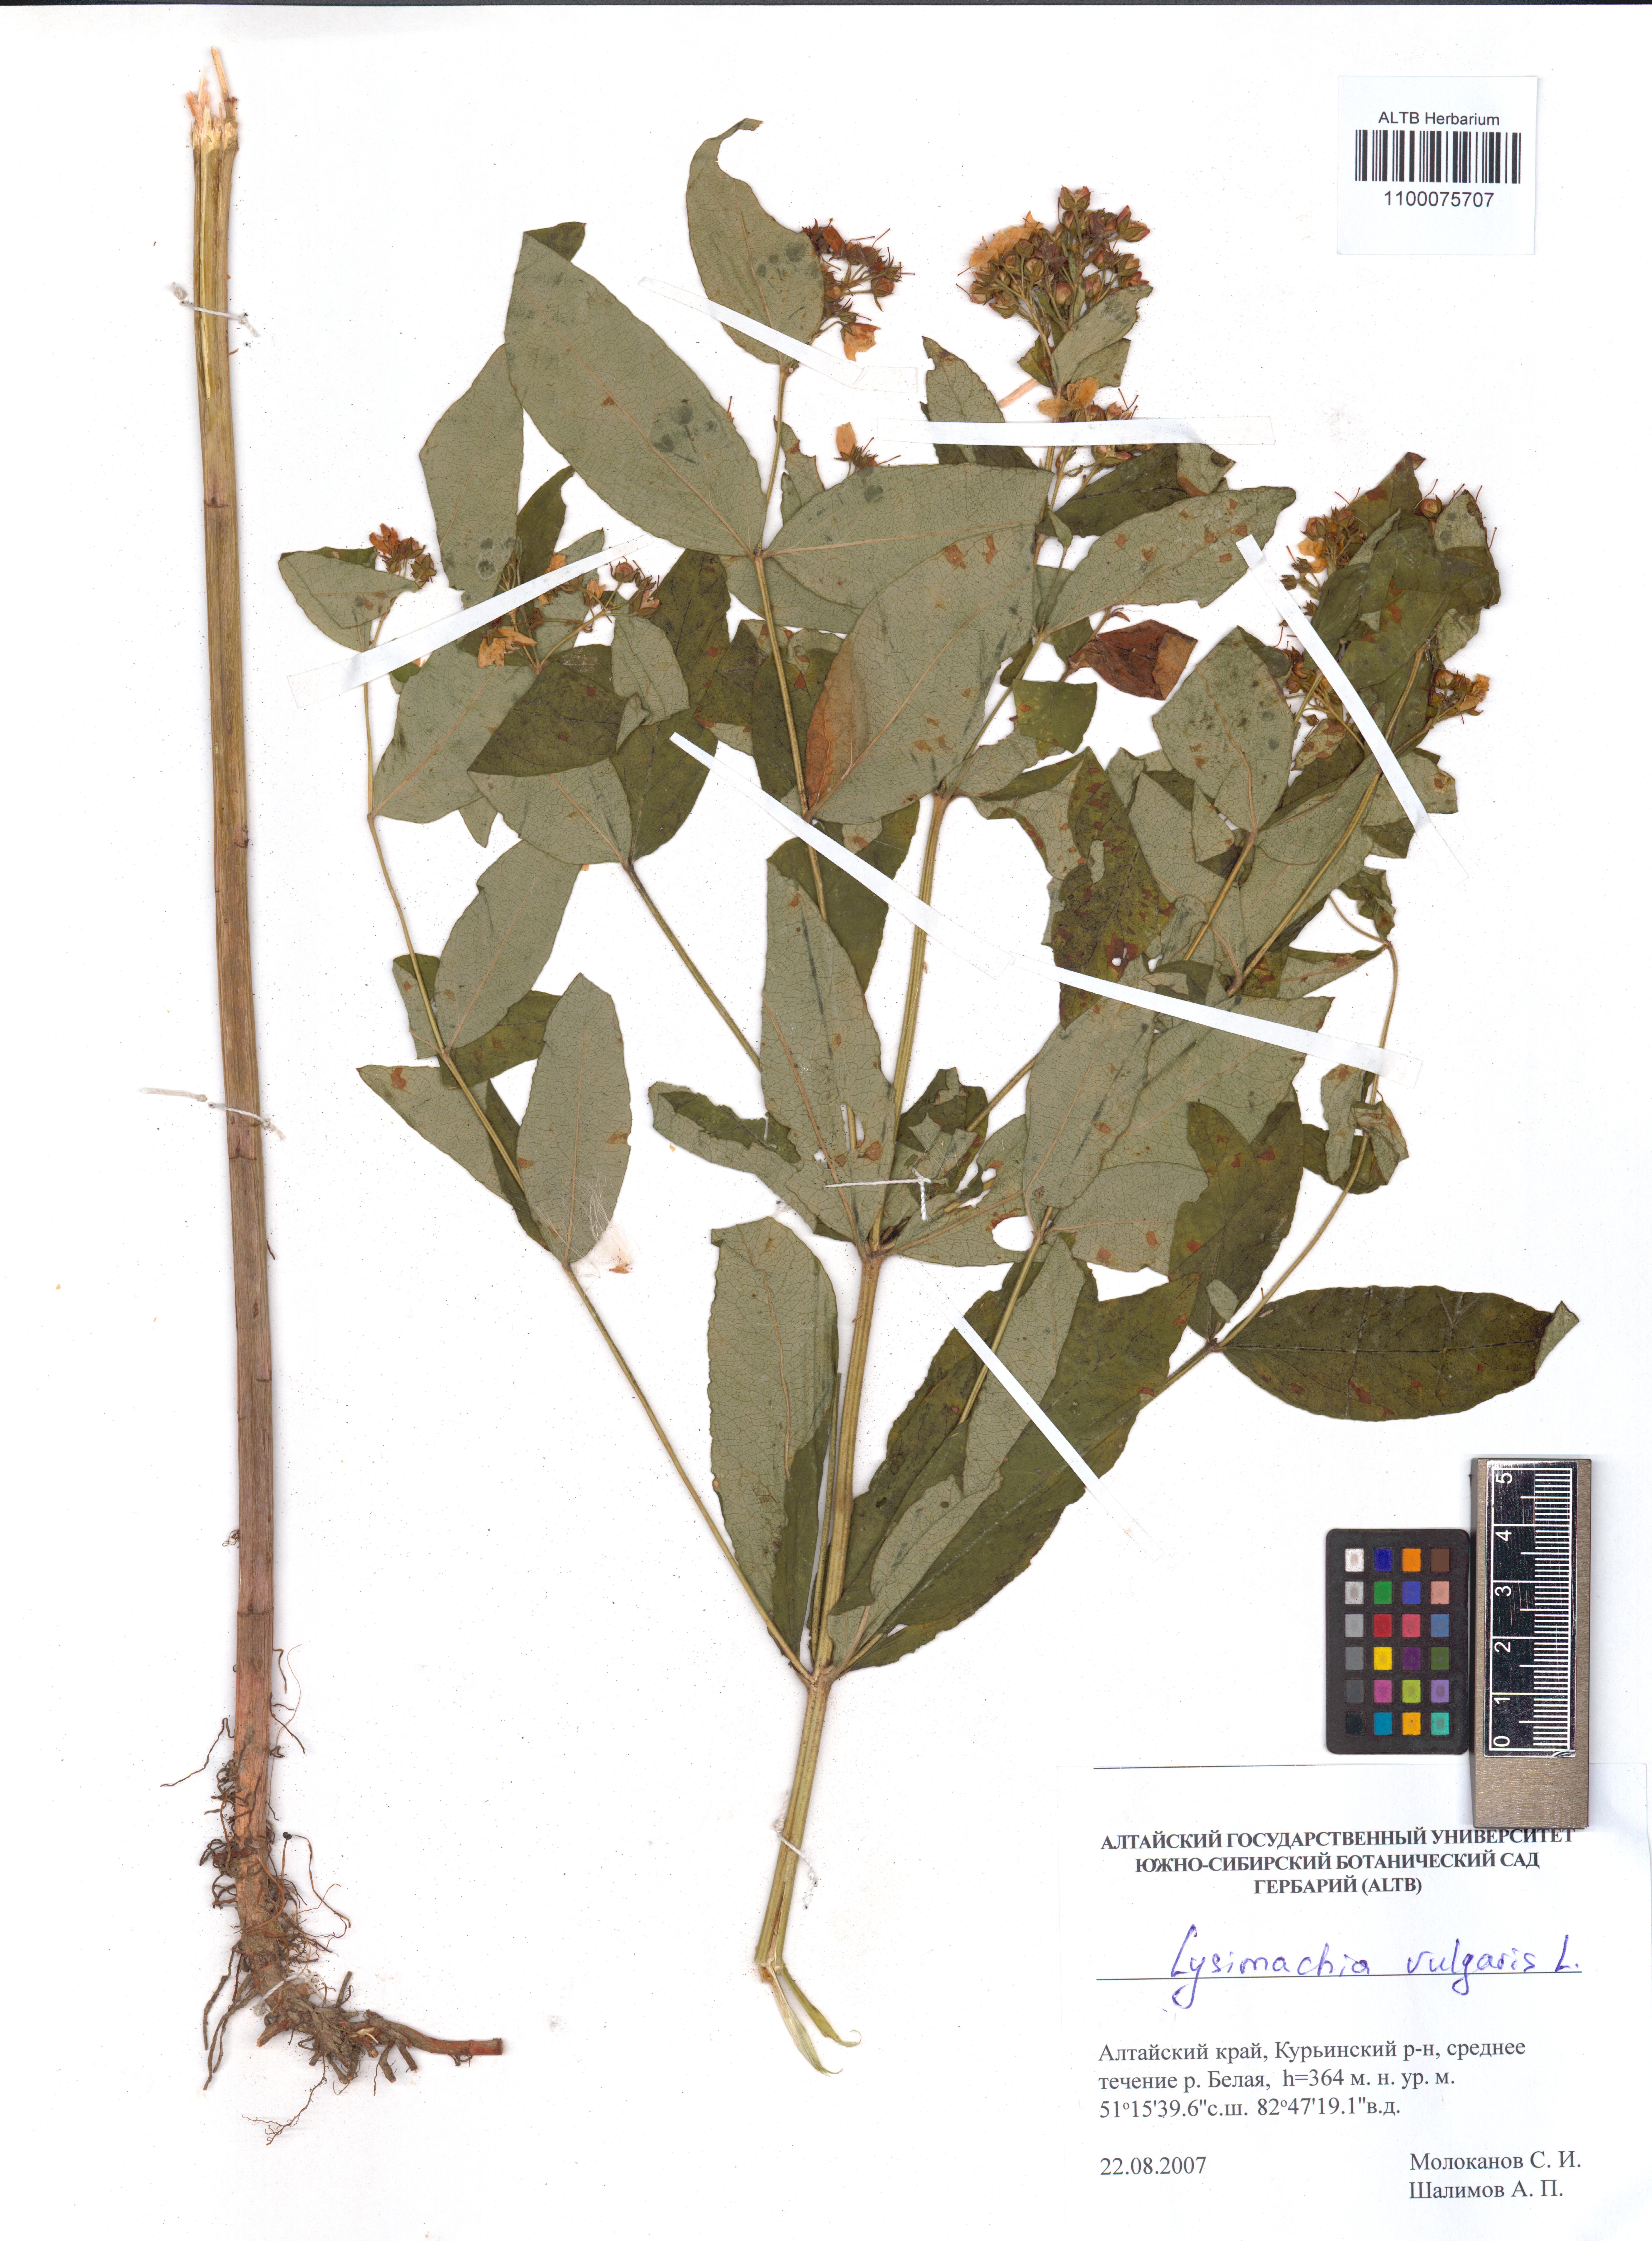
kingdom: Plantae
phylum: Tracheophyta
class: Magnoliopsida
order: Ericales
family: Primulaceae
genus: Lysimachia
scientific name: Lysimachia vulgaris
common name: Yellow loosestrife
